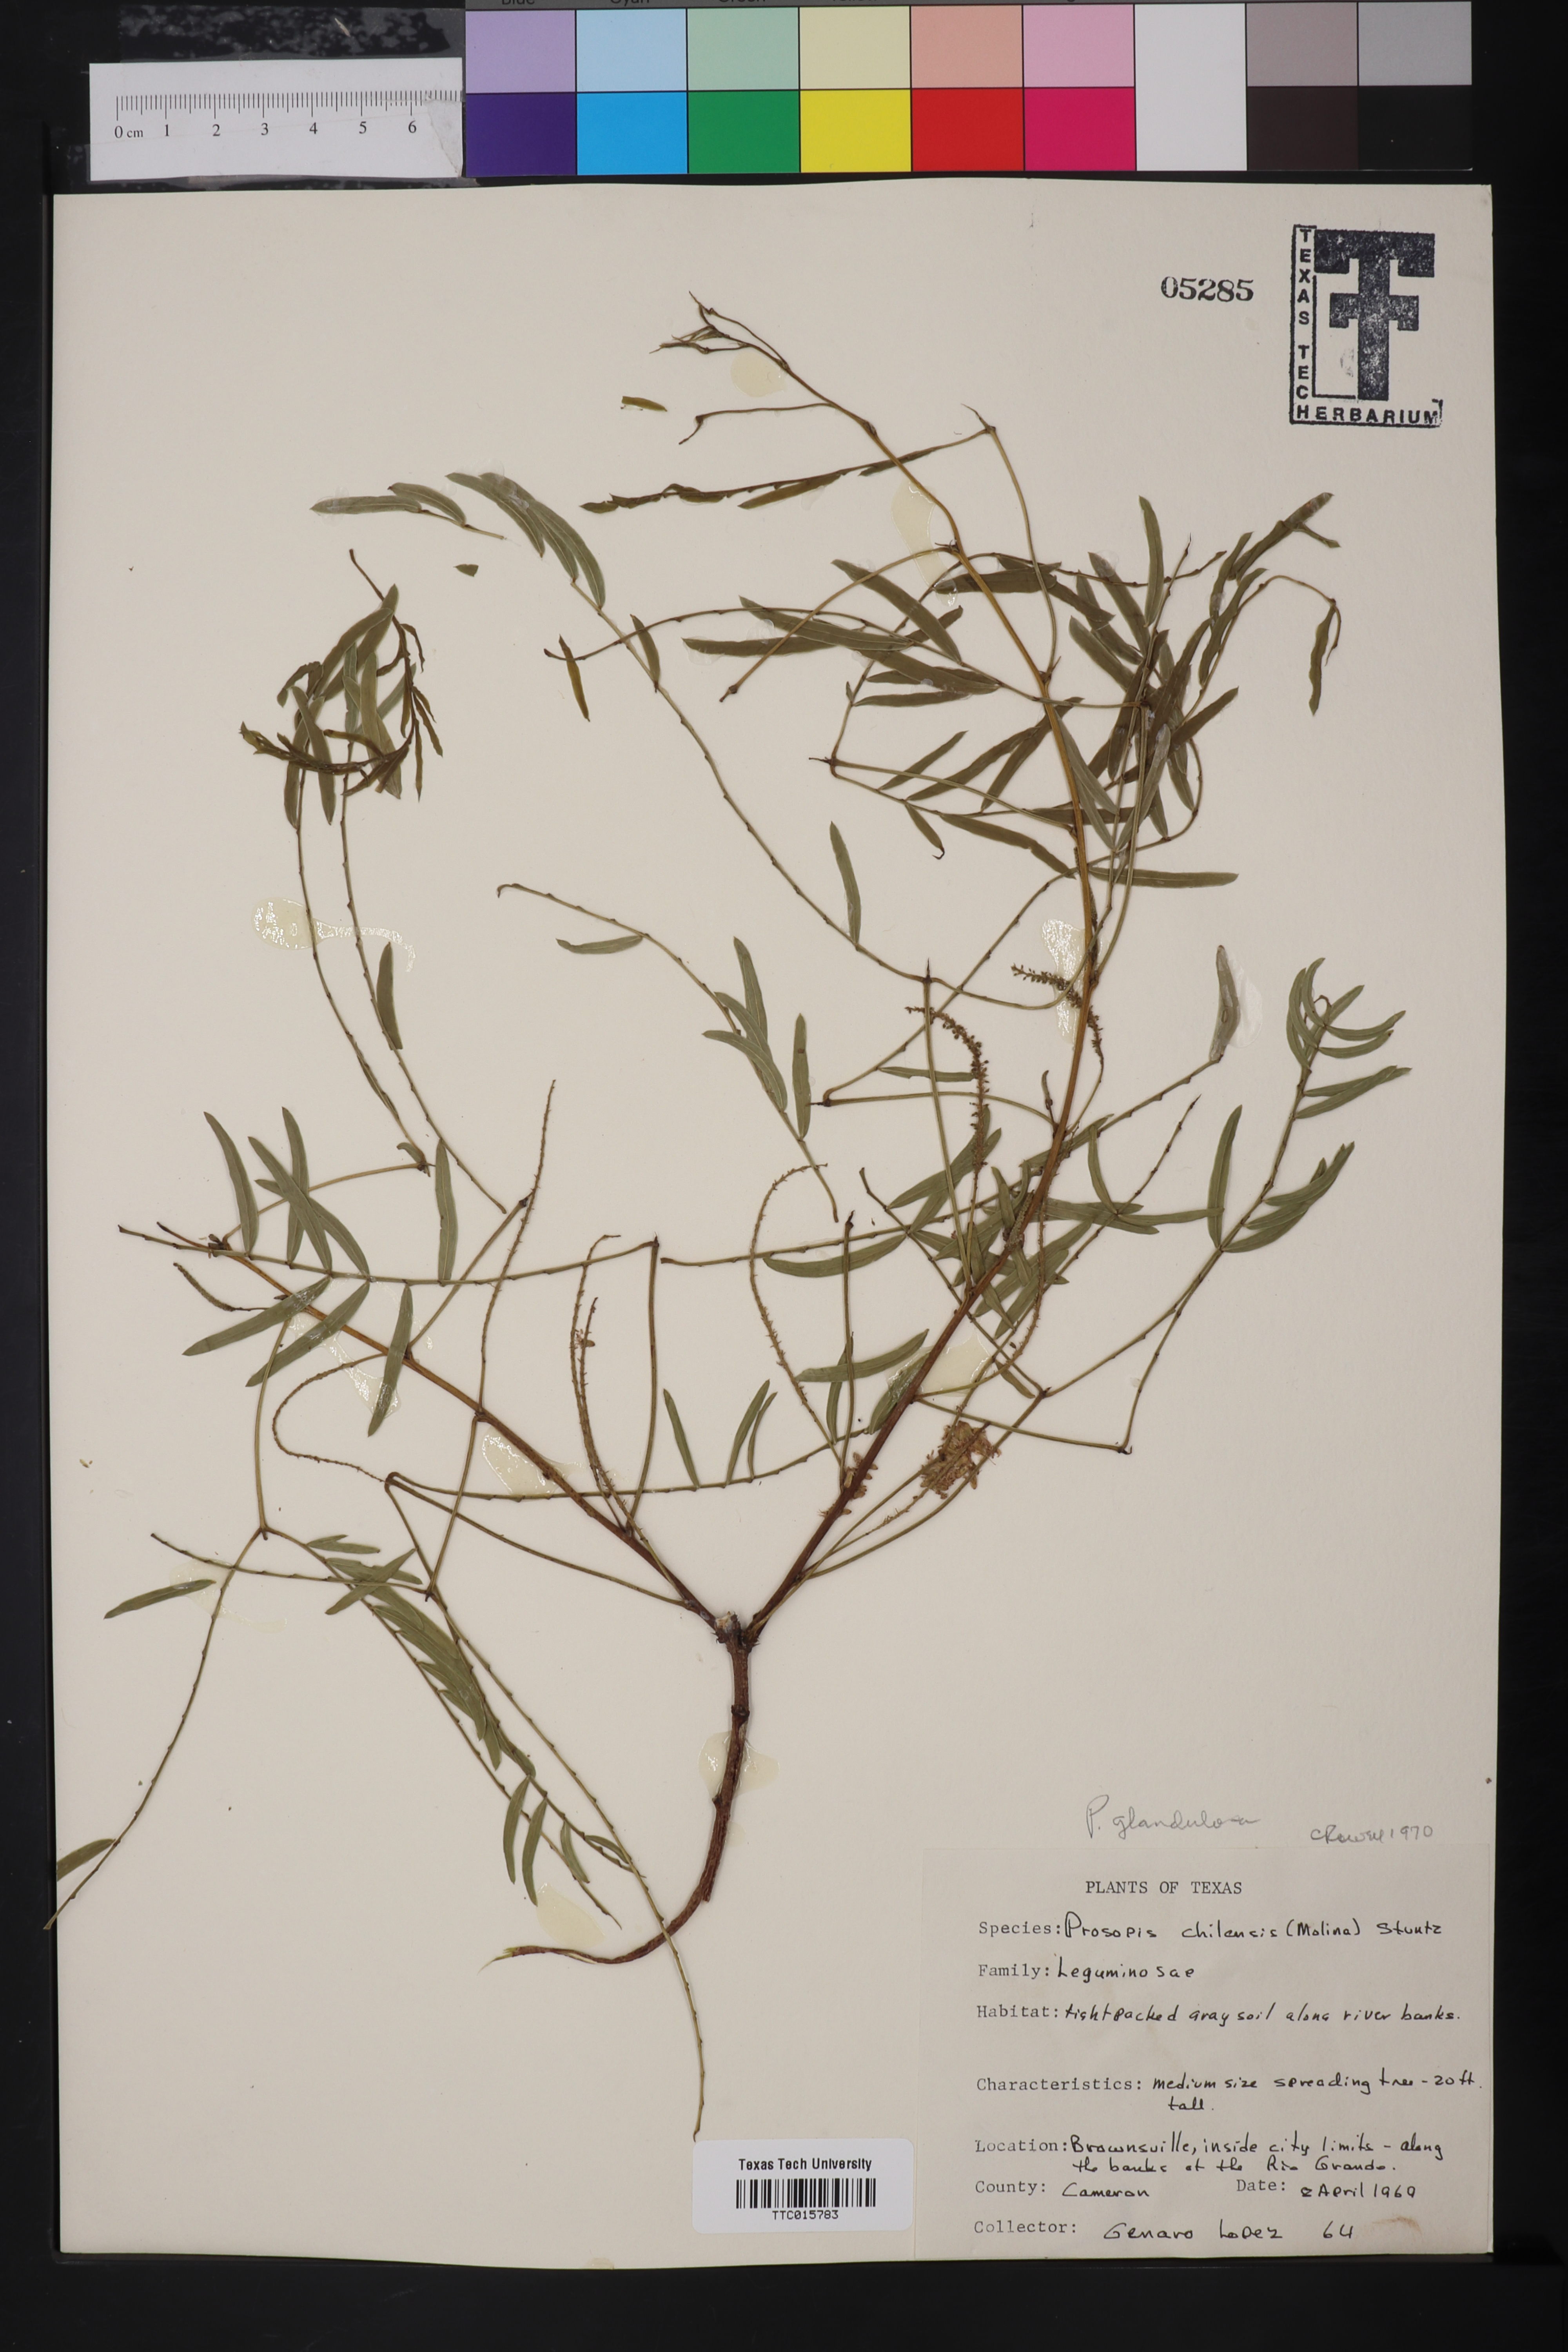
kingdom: Plantae
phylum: Tracheophyta
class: Magnoliopsida
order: Fabales
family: Fabaceae
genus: Prosopis
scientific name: Prosopis glandulosa
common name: Honey mesquite
